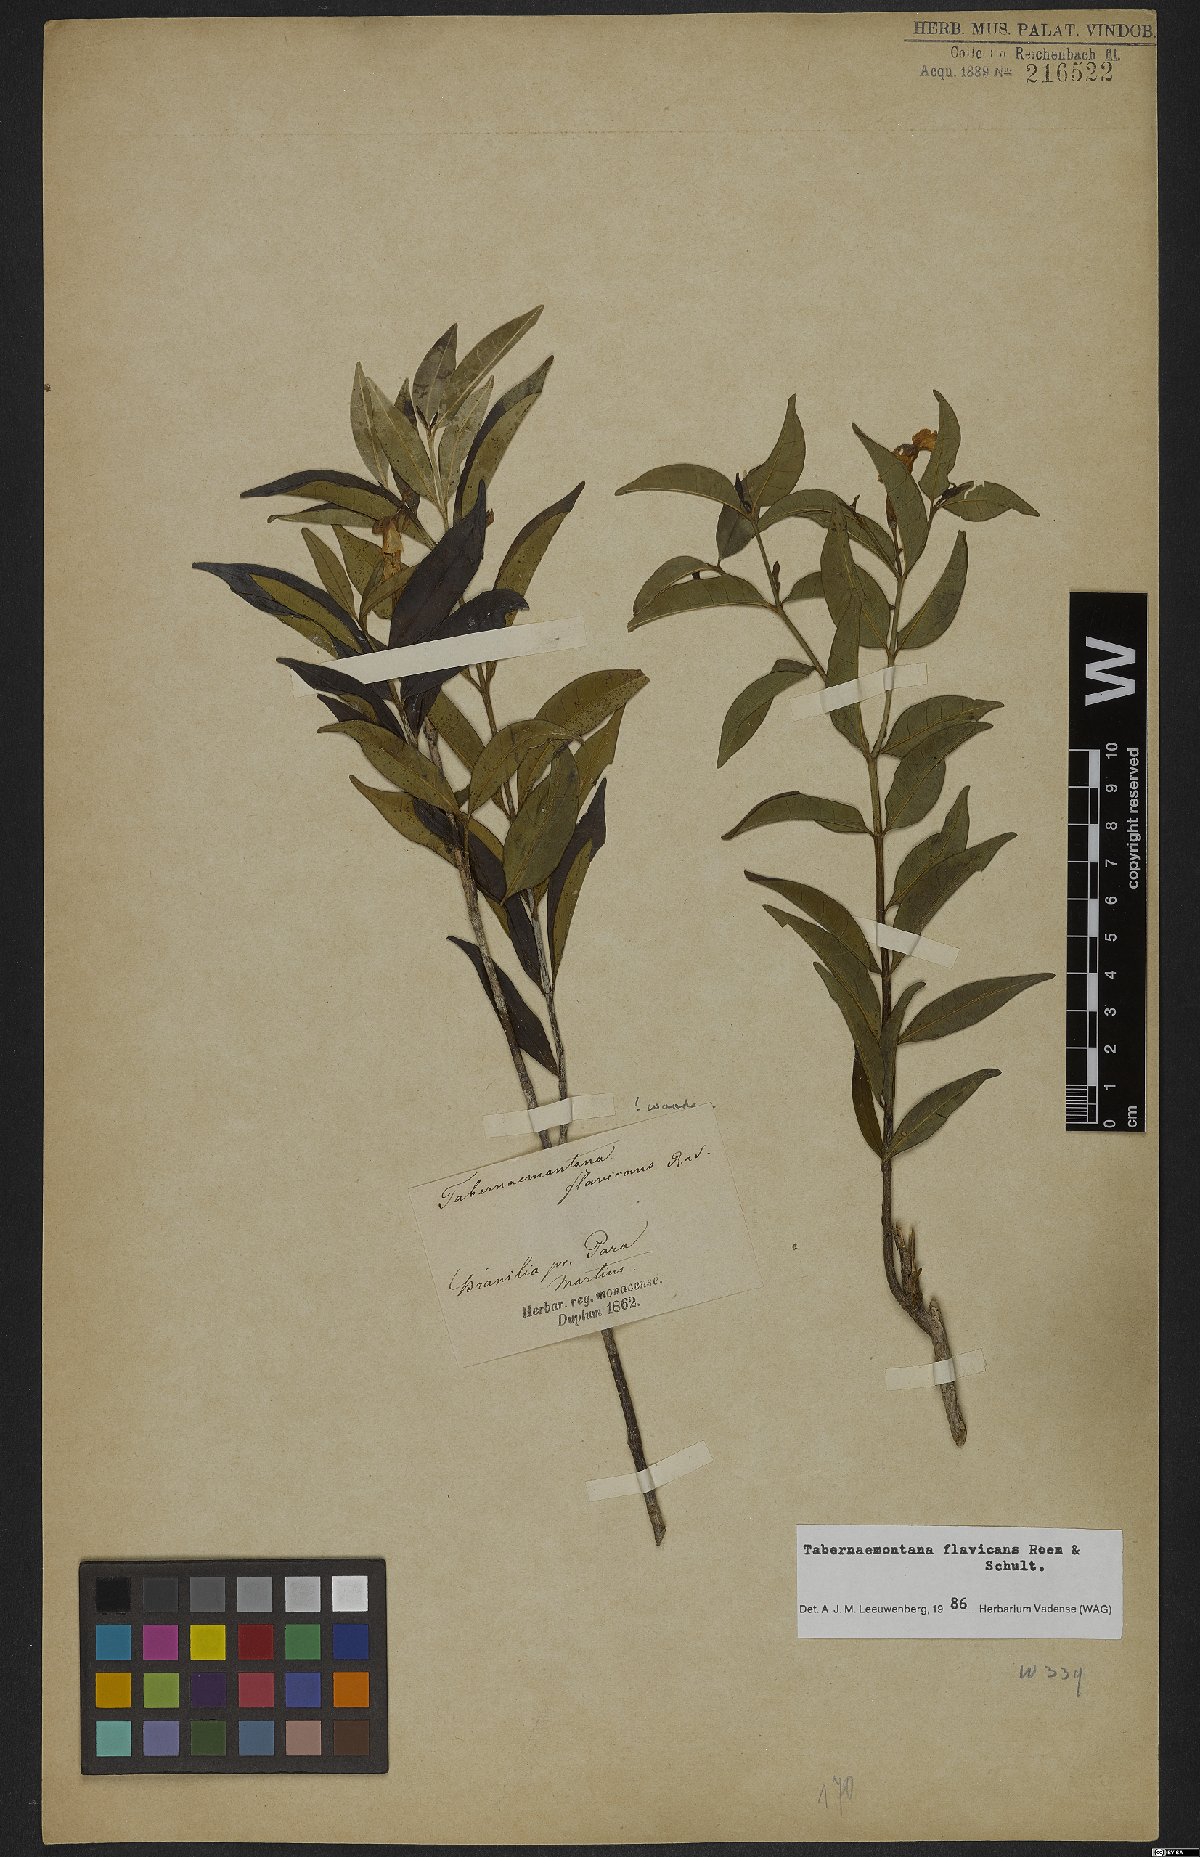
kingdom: Plantae
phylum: Tracheophyta
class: Magnoliopsida
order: Gentianales
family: Apocynaceae
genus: Tabernaemontana
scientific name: Tabernaemontana flavicans
